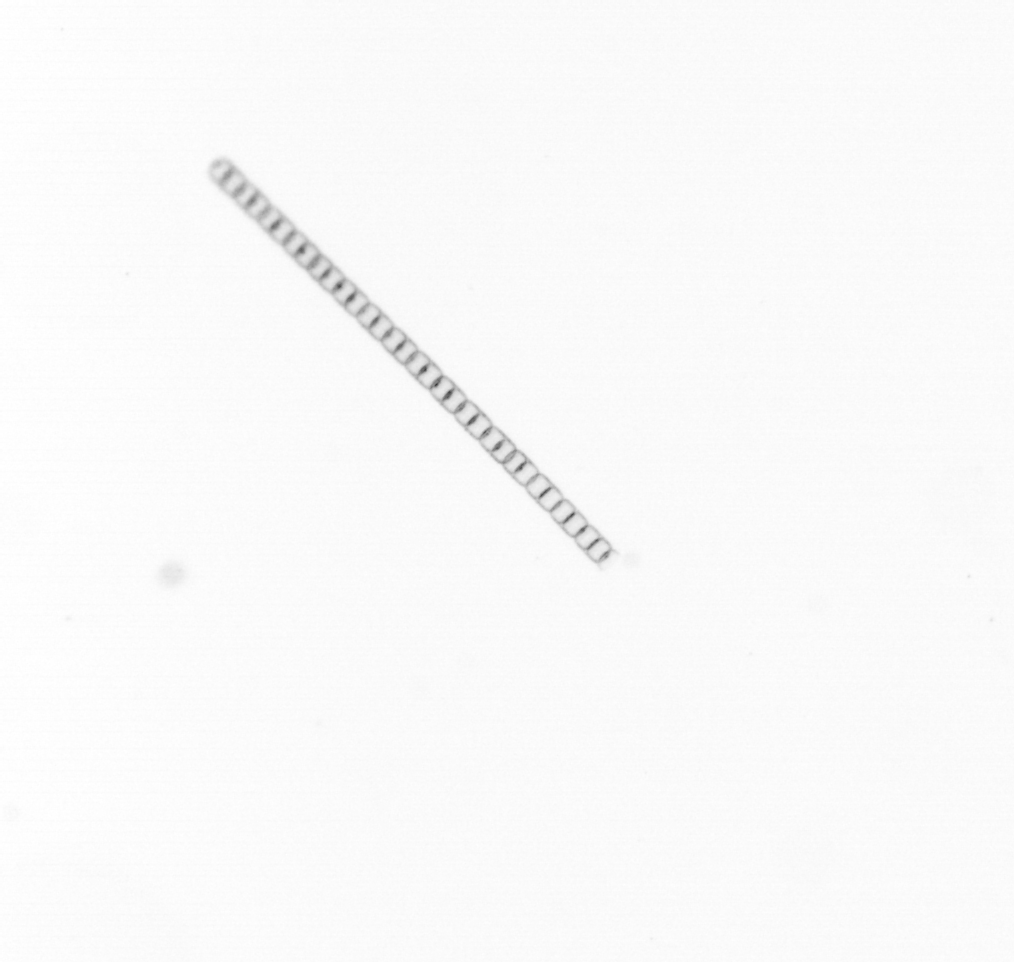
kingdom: Chromista
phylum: Ochrophyta
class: Bacillariophyceae
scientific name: Bacillariophyceae
